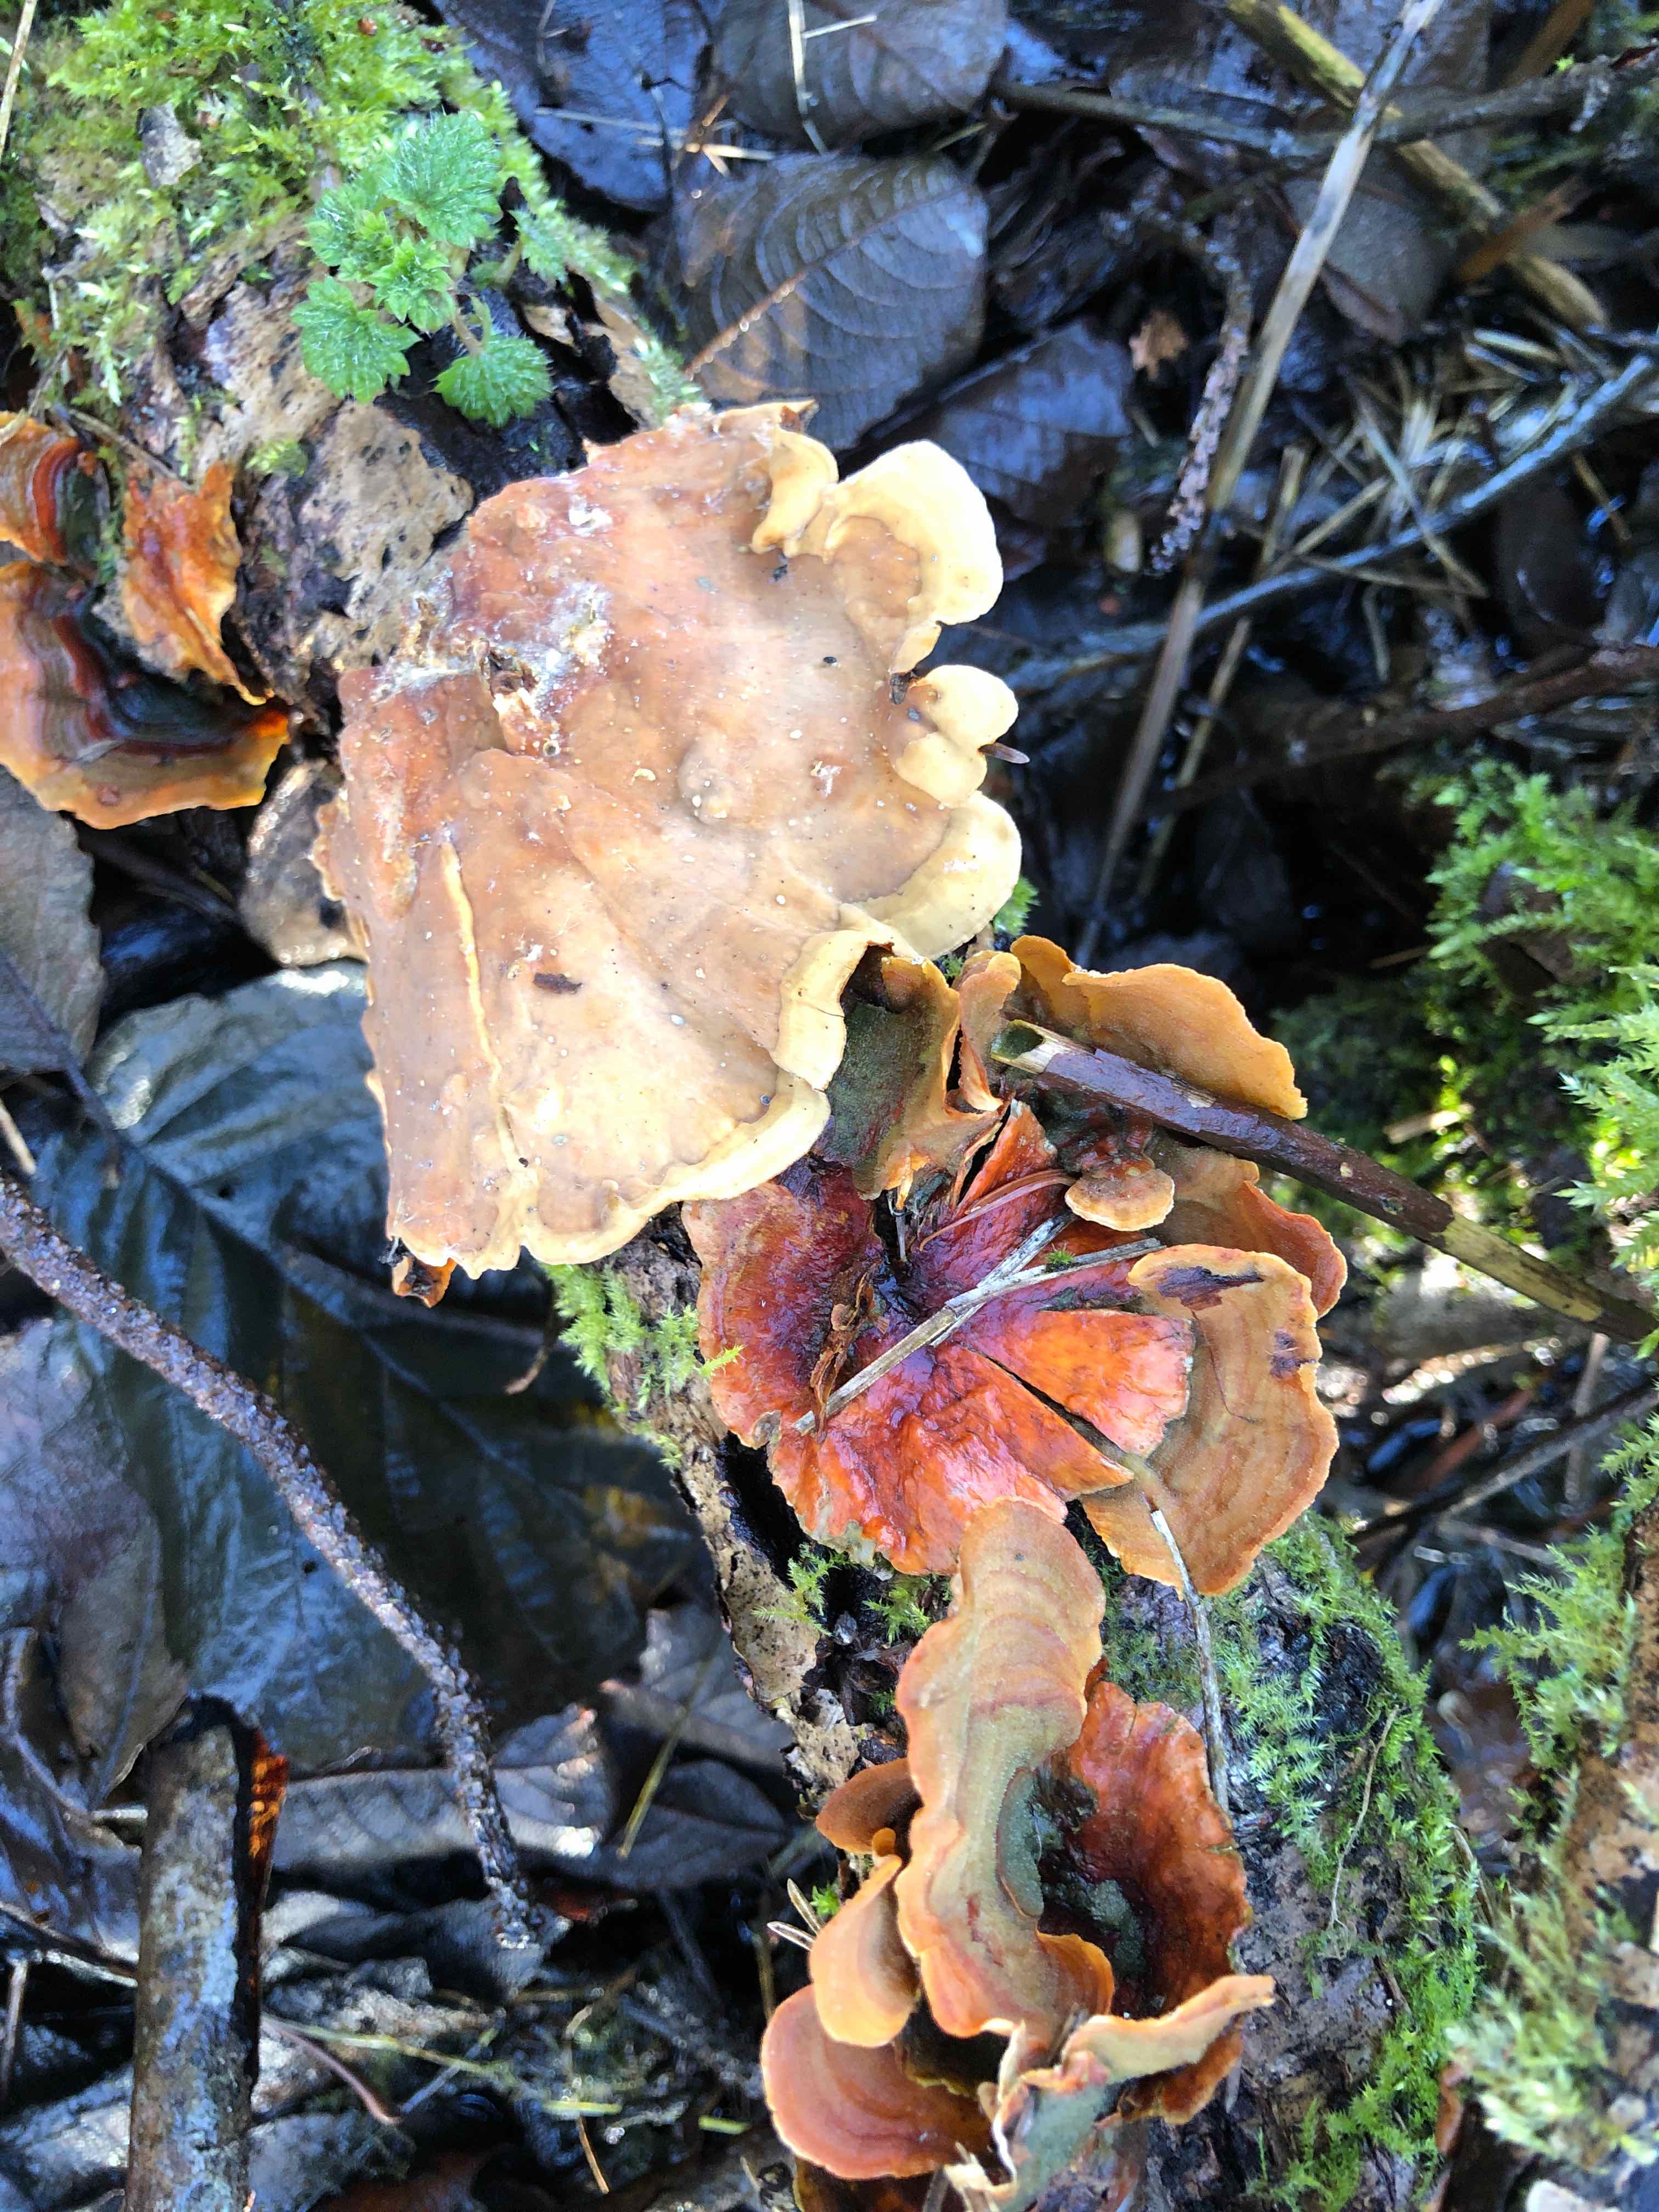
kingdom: Fungi
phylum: Basidiomycota
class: Agaricomycetes
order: Russulales
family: Stereaceae
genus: Stereum
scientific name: Stereum subtomentosum
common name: smuk lædersvamp
